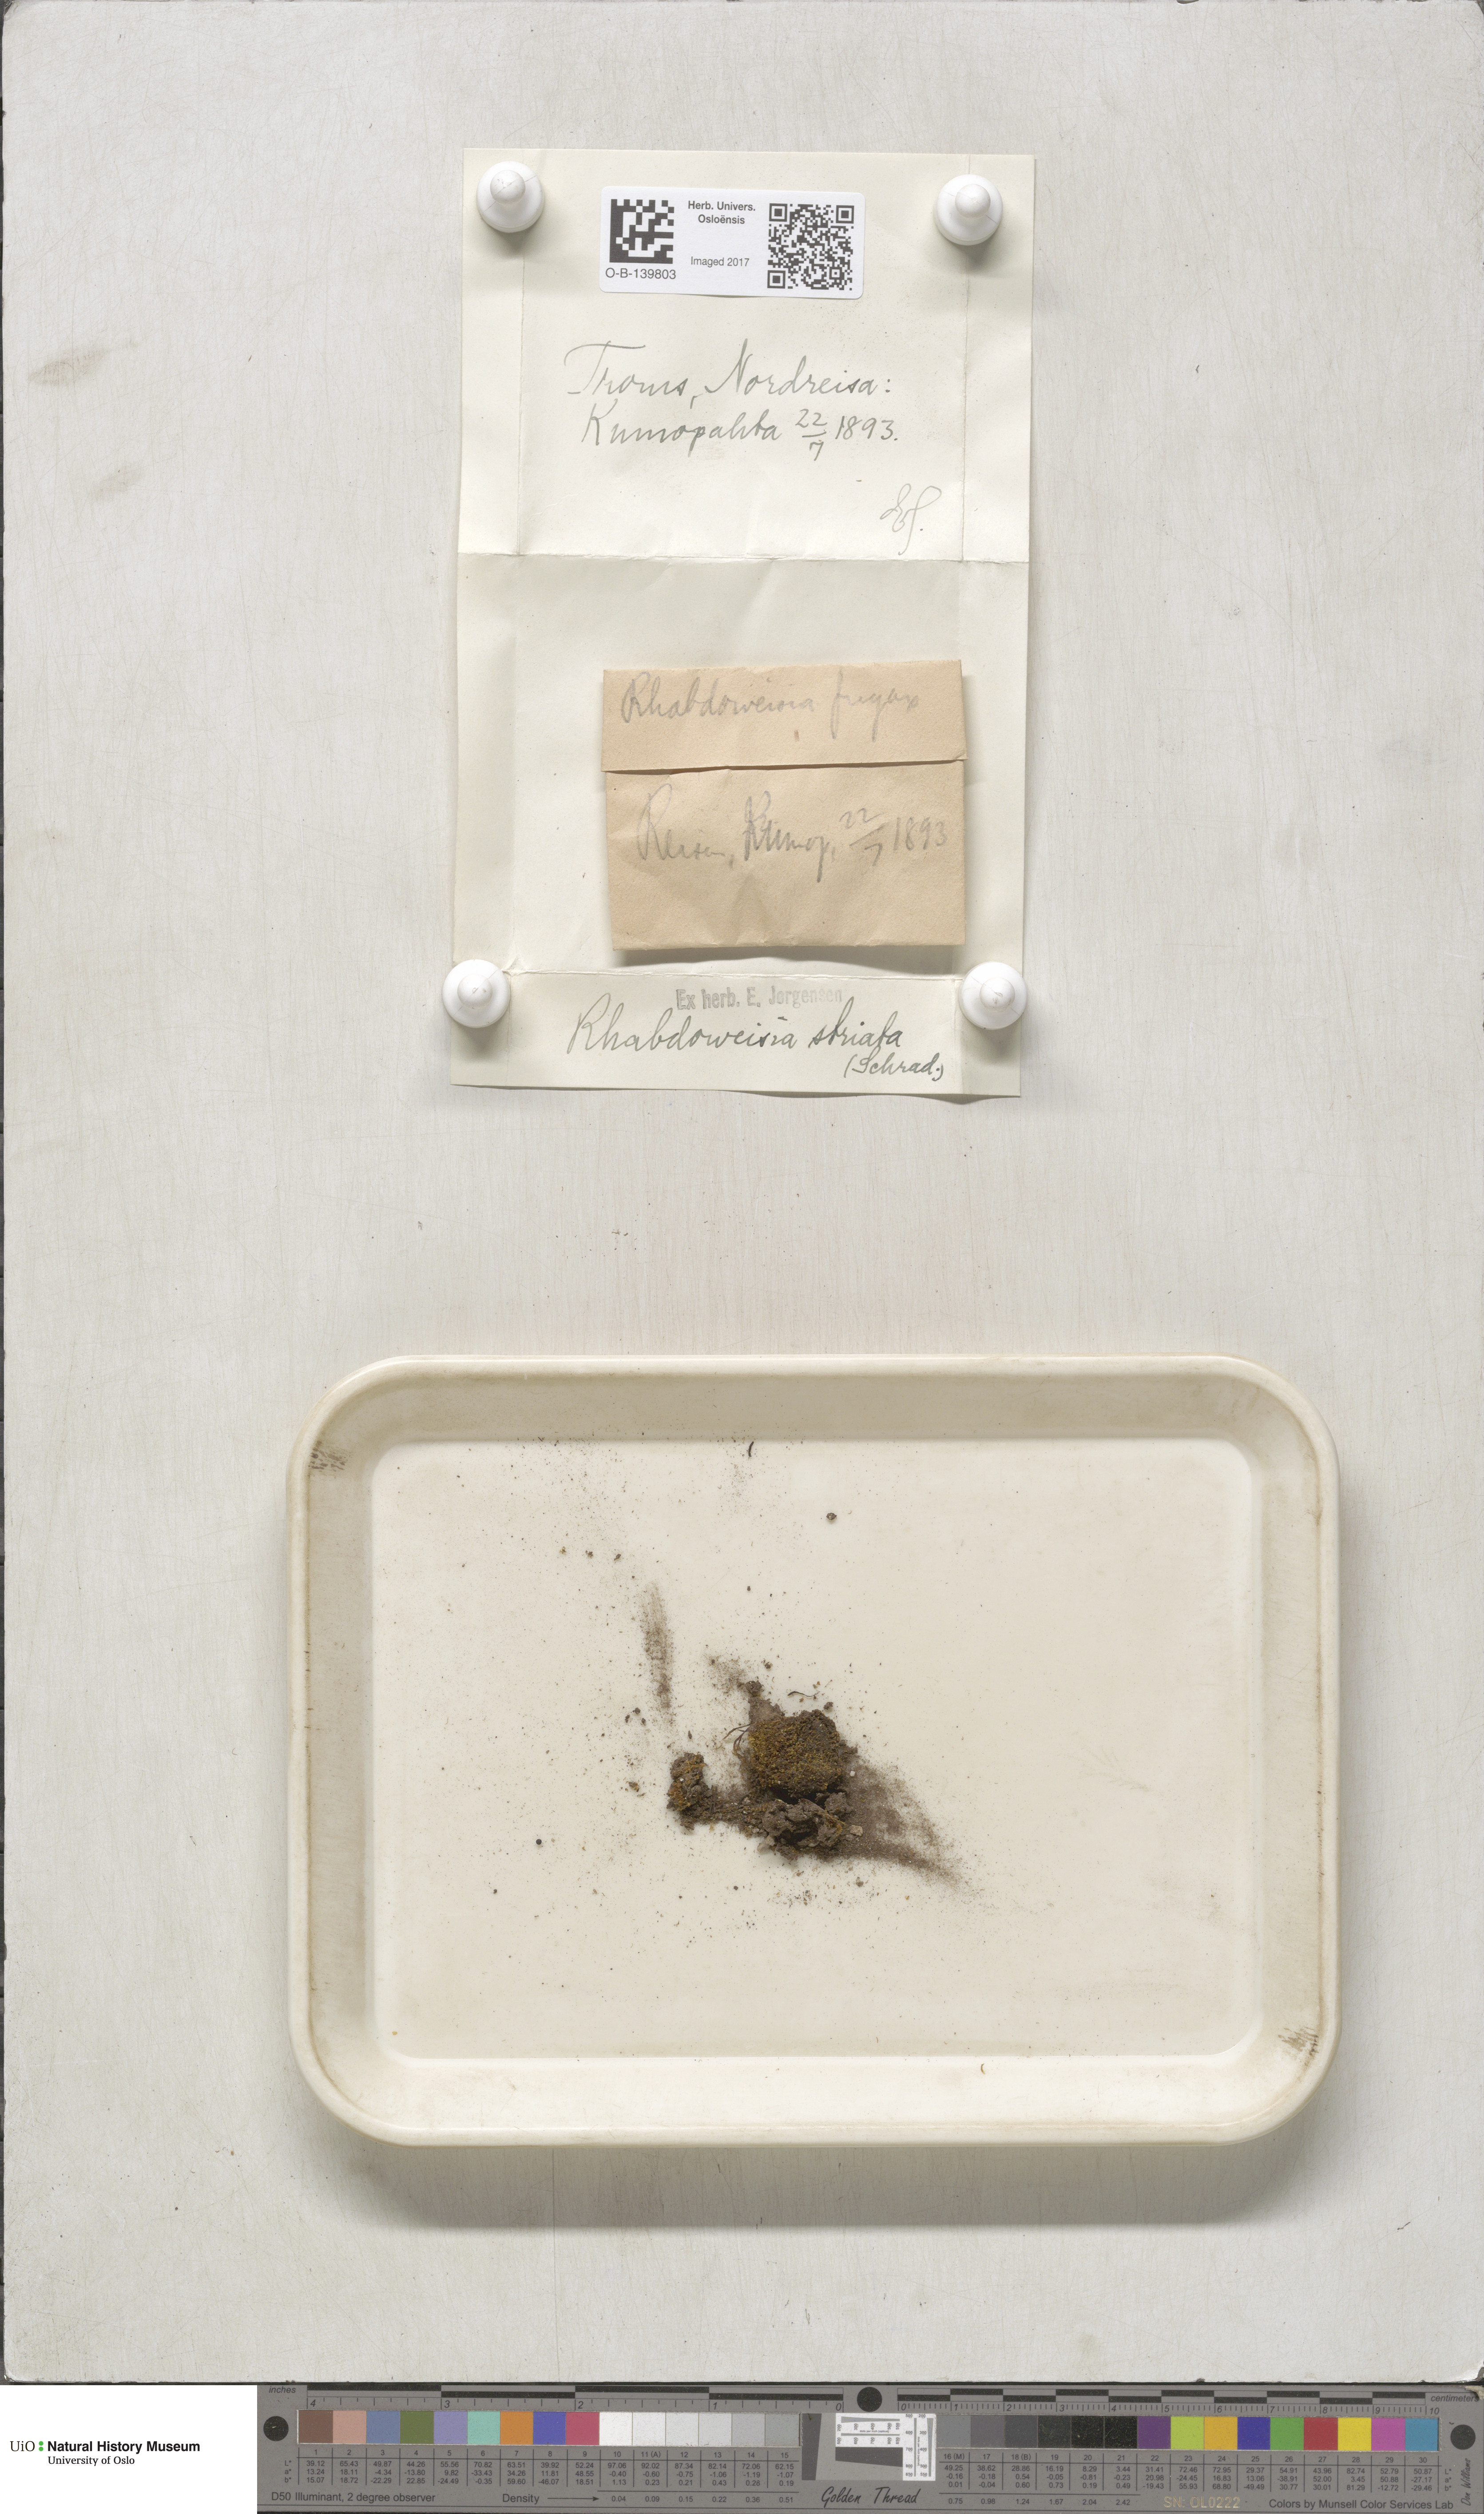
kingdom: Plantae
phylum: Bryophyta
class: Bryopsida
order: Dicranales
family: Rhabdoweisiaceae
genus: Rhabdoweisia
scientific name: Rhabdoweisia fugax
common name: Dwarf streak-moss
